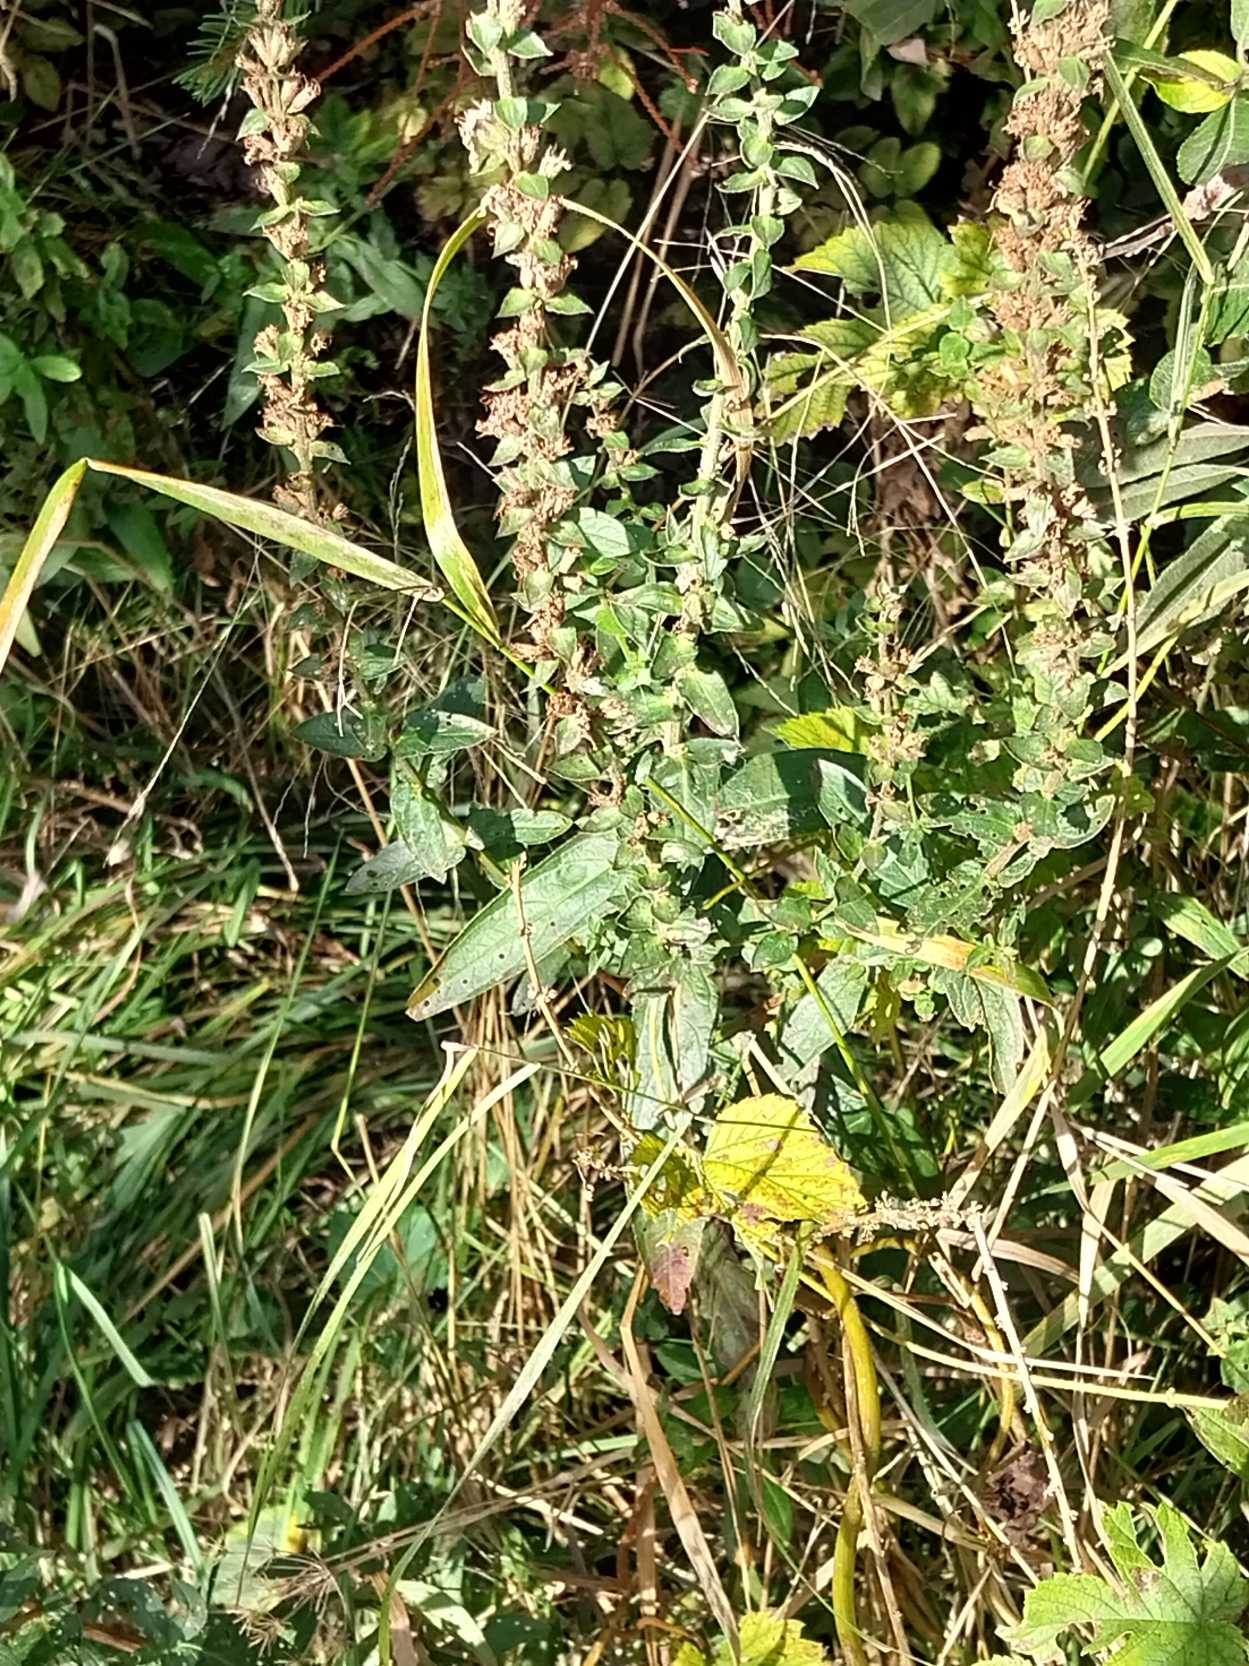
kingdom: Plantae
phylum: Tracheophyta
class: Magnoliopsida
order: Lamiales
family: Lamiaceae
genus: Stachys
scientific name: Stachys palustris
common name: Kær-galtetand
